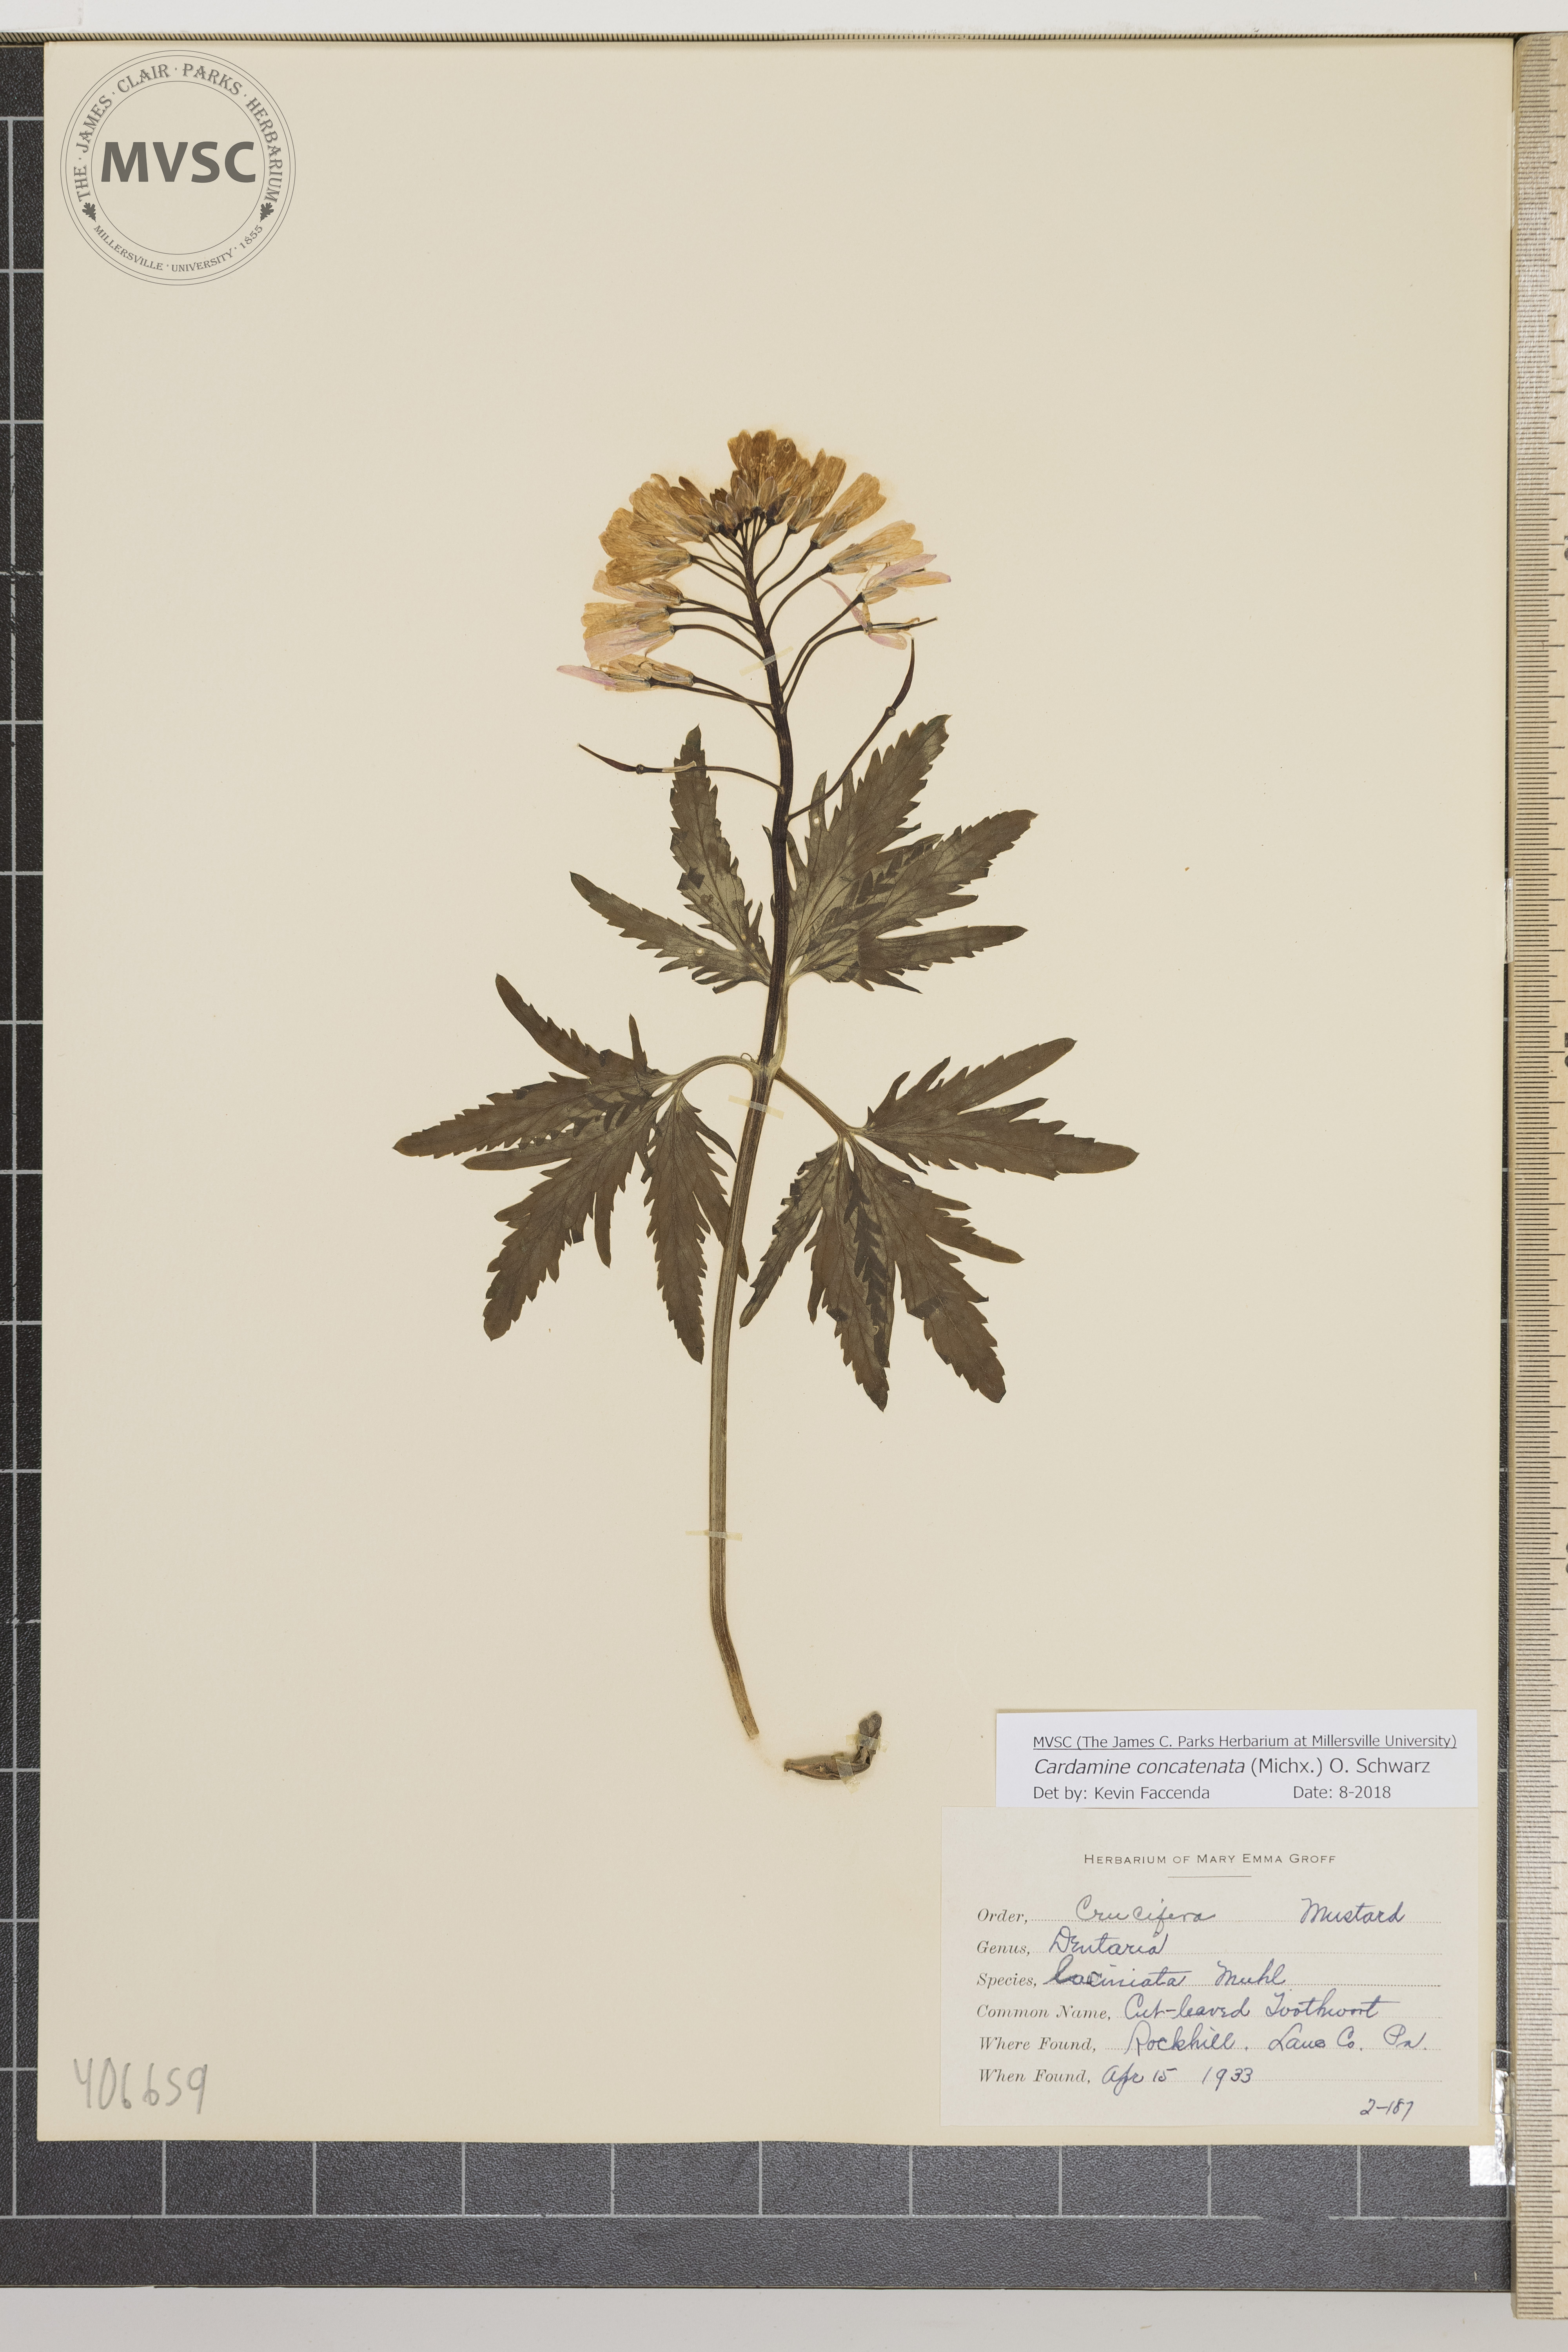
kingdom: Plantae
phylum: Tracheophyta
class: Magnoliopsida
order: Brassicales
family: Brassicaceae
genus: Cardamine
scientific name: Cardamine concatenata
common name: Cut-leaved Toothwort
